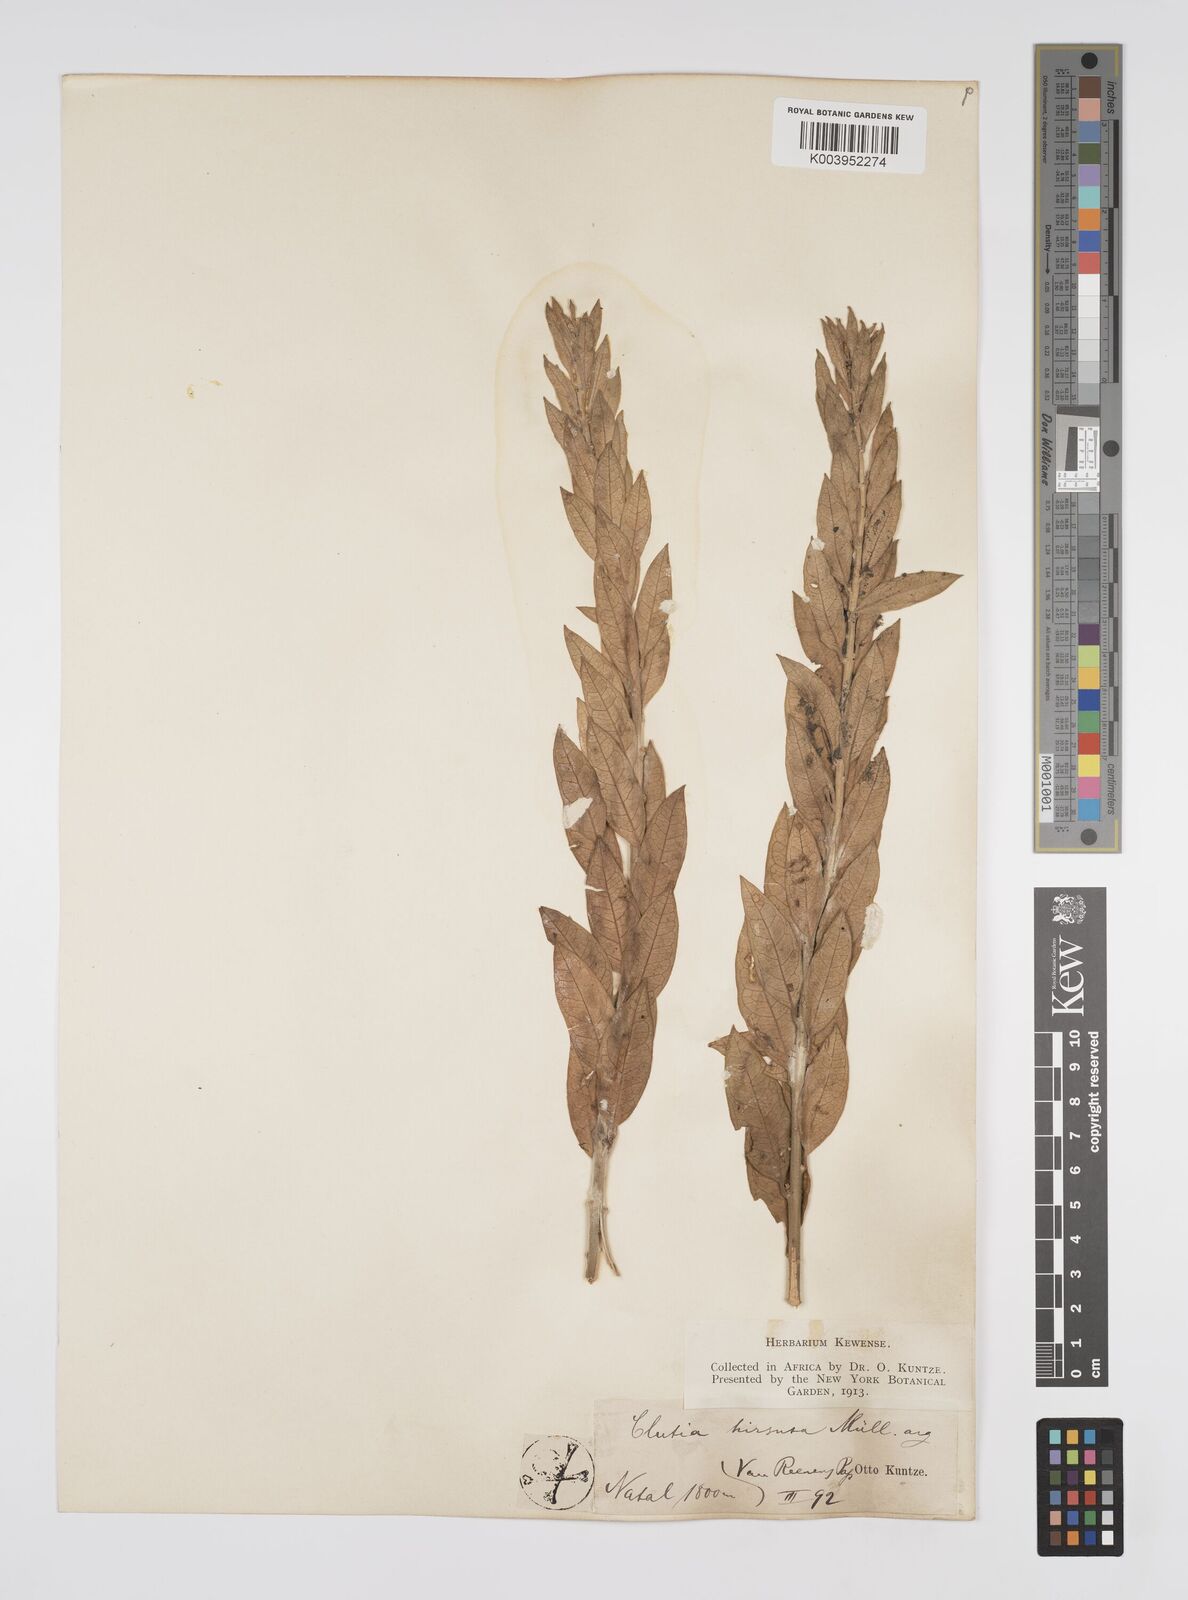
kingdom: Plantae
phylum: Tracheophyta
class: Magnoliopsida
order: Malpighiales
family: Peraceae
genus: Clutia
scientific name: Clutia affinis
